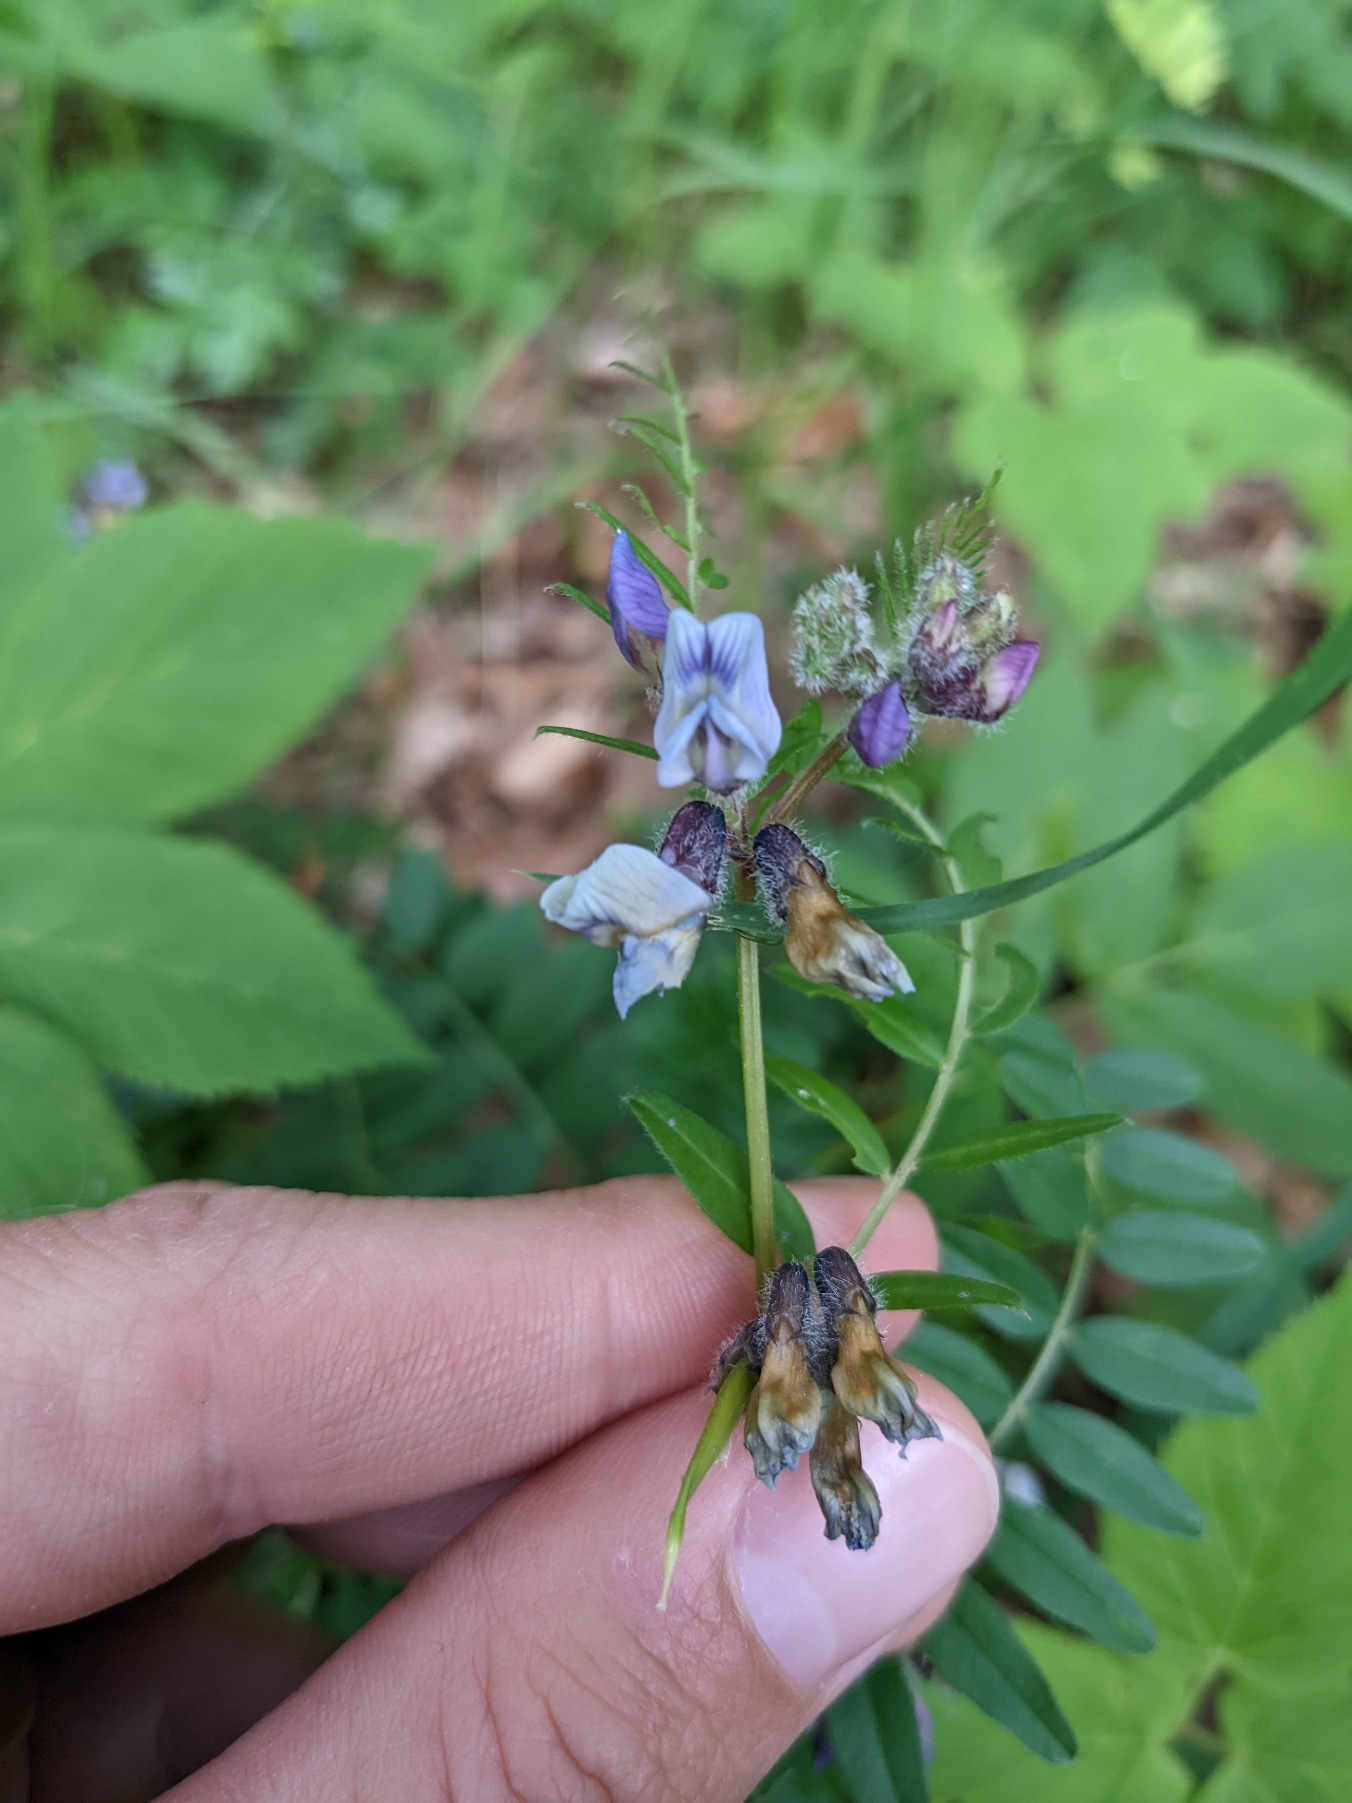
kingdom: Plantae
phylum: Tracheophyta
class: Magnoliopsida
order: Fabales
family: Fabaceae
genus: Vicia
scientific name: Vicia sepium
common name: Gærde-vikke
